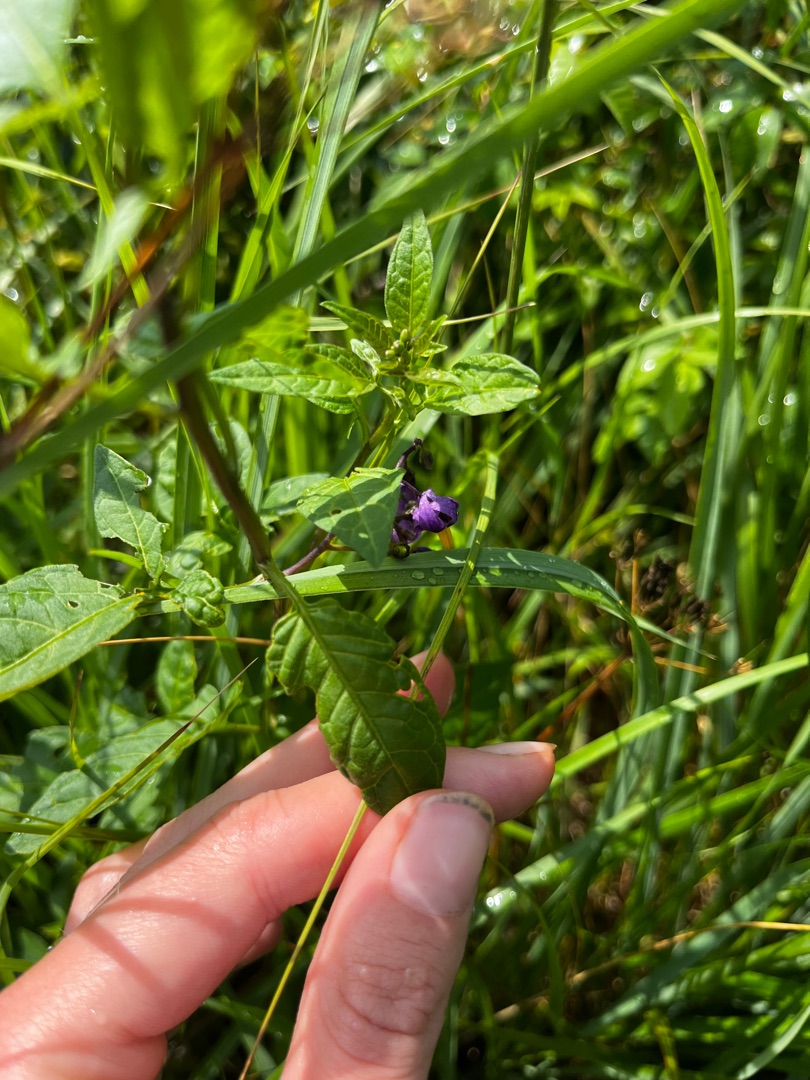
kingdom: Plantae
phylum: Tracheophyta
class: Magnoliopsida
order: Solanales
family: Solanaceae
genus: Solanum
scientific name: Solanum dulcamara
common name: Bittersød natskygge
